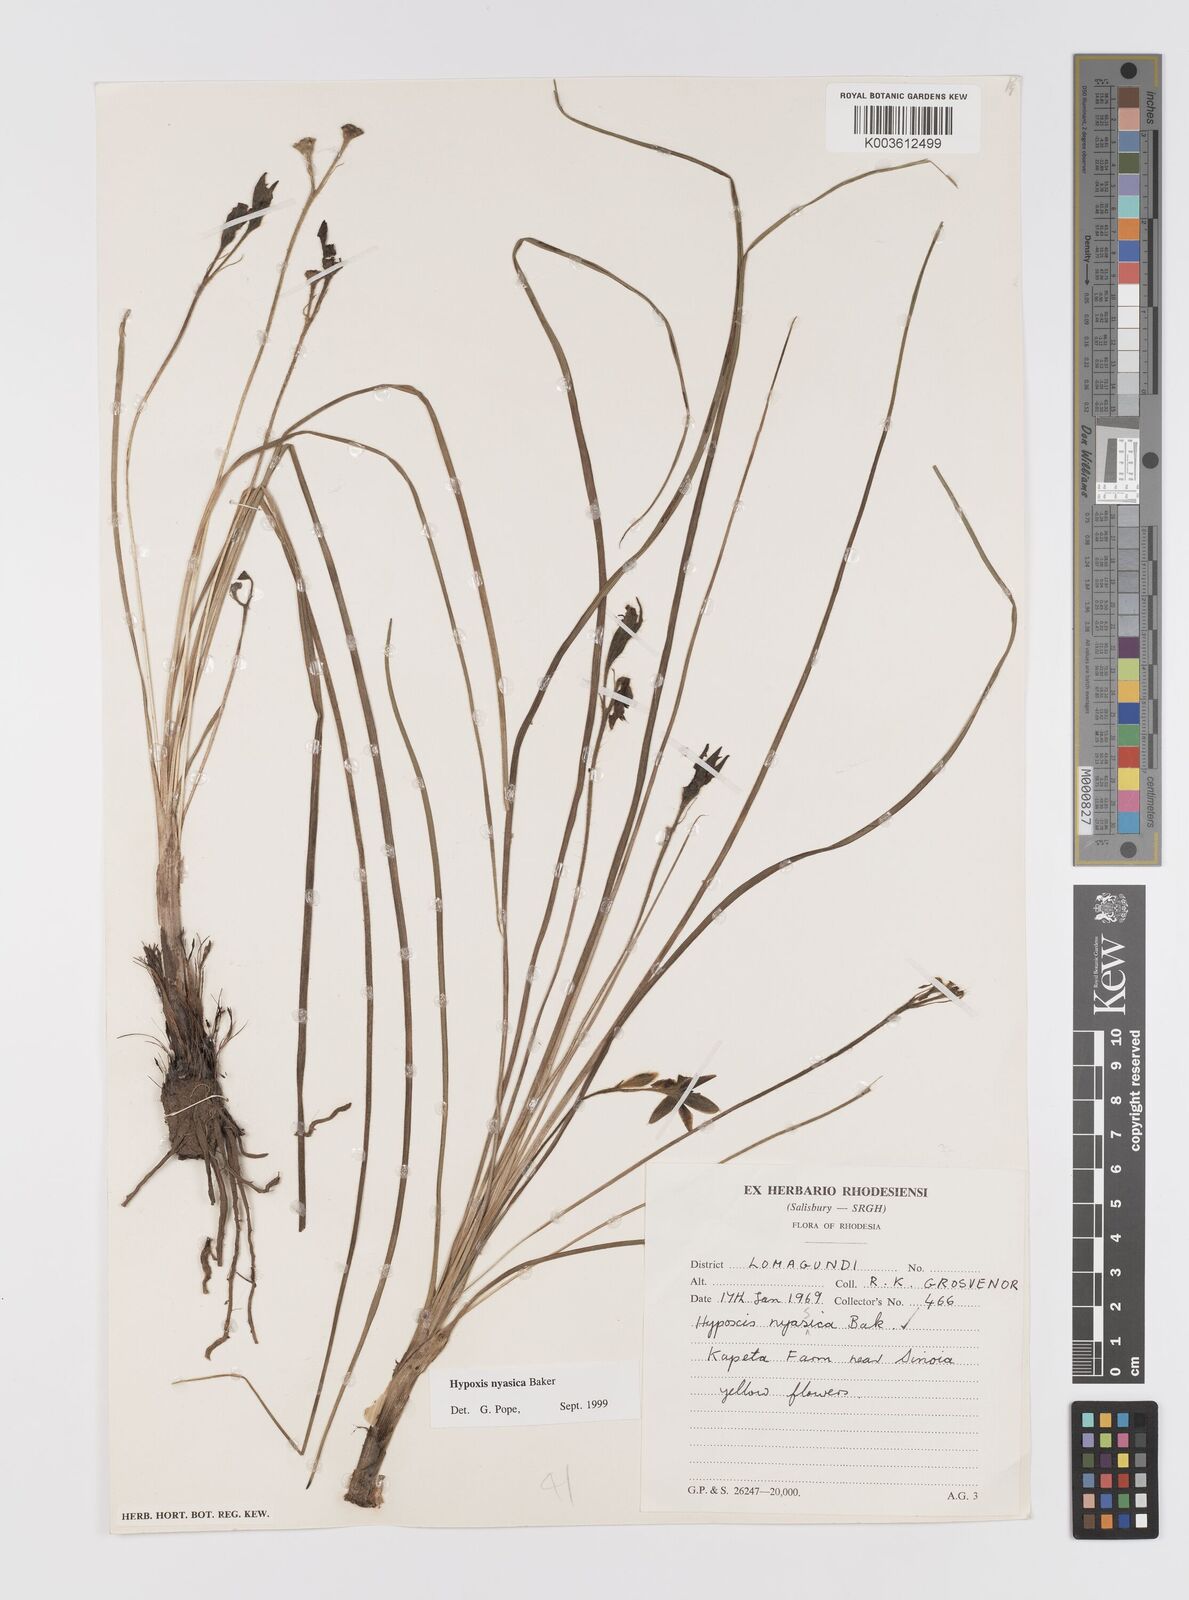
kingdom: Plantae
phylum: Tracheophyta
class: Liliopsida
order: Asparagales
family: Hypoxidaceae
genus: Hypoxis
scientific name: Hypoxis nyasica
